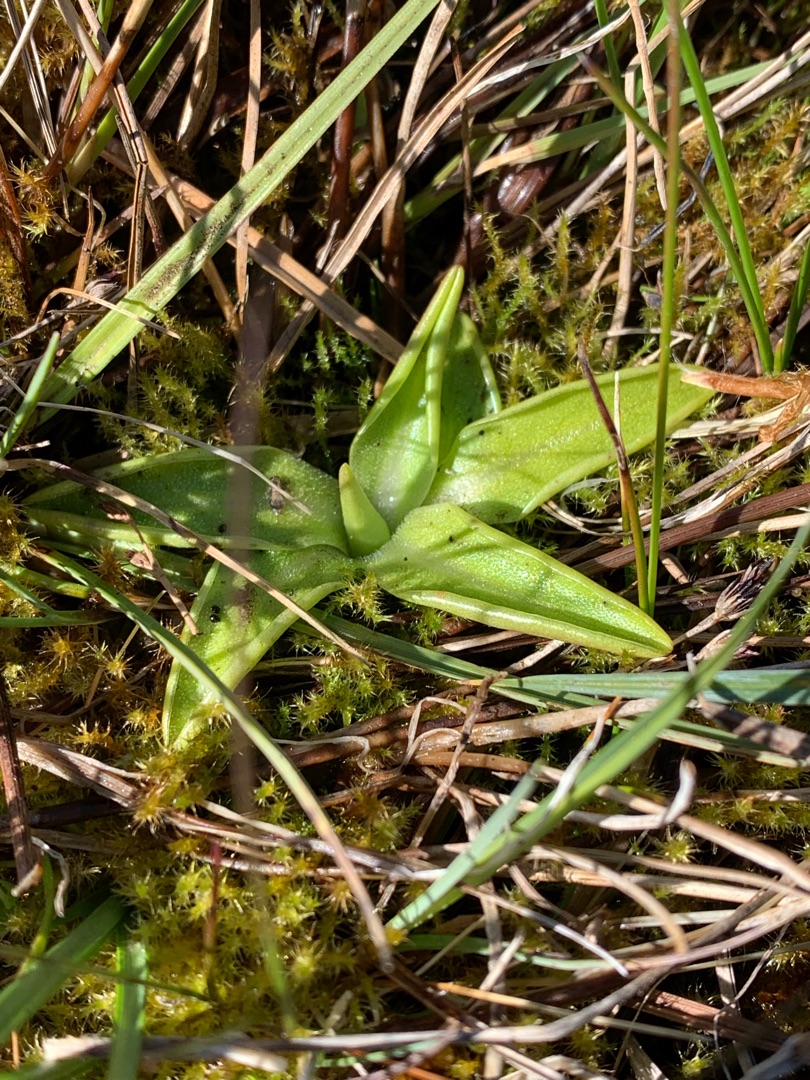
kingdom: Plantae
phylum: Tracheophyta
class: Magnoliopsida
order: Lamiales
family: Lentibulariaceae
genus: Pinguicula
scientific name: Pinguicula vulgaris
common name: Vibefedt
